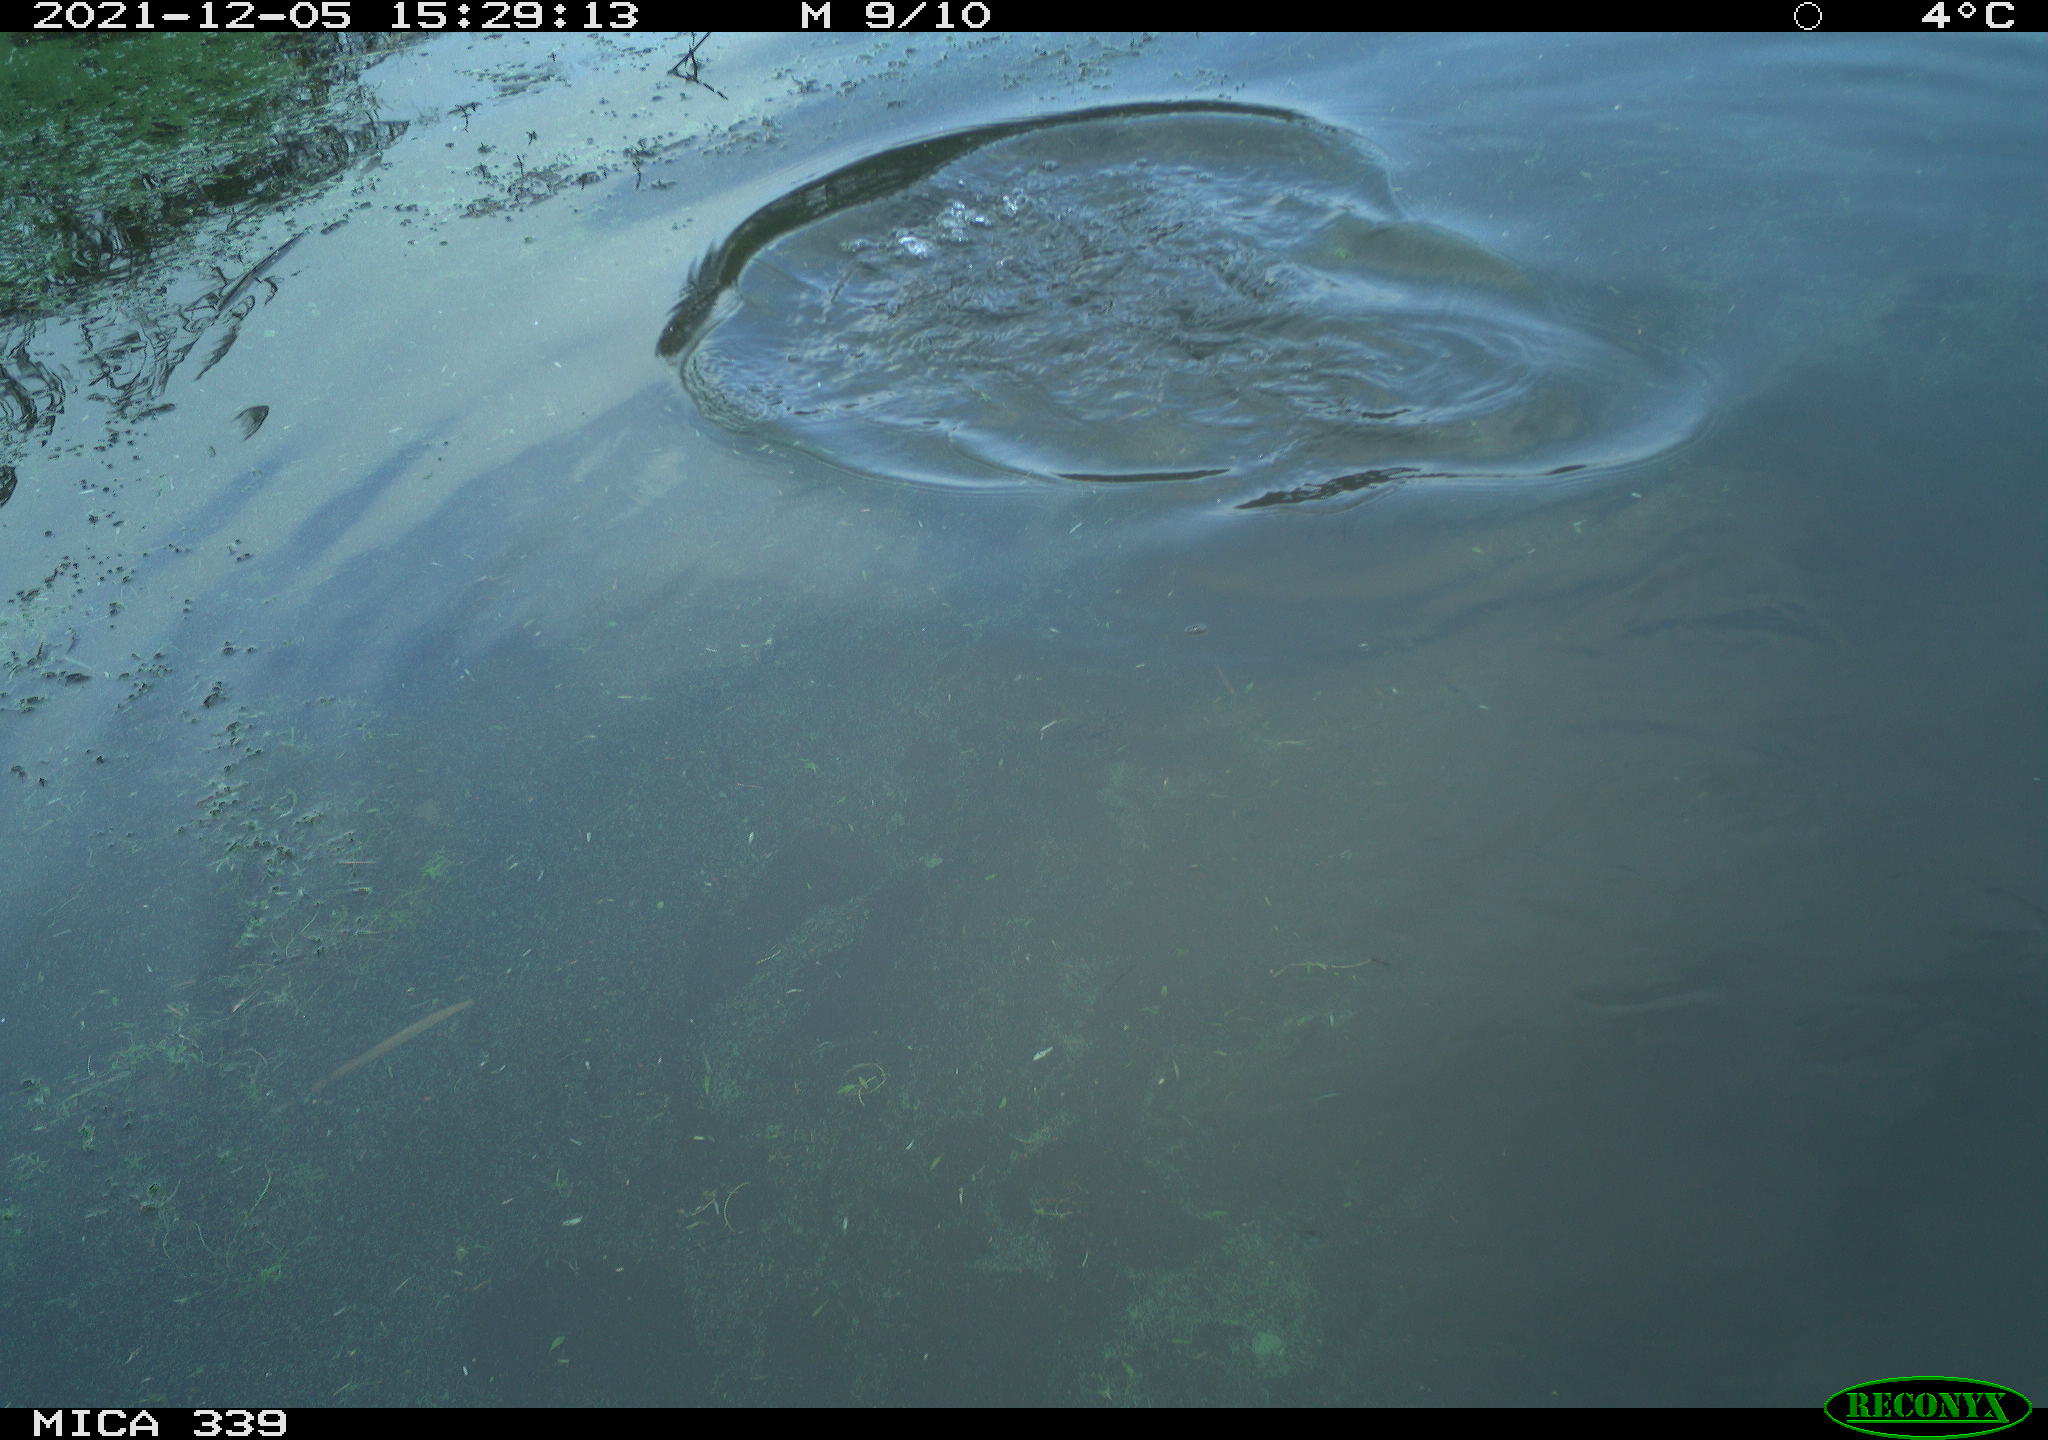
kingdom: Animalia
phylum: Chordata
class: Aves
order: Suliformes
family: Phalacrocoracidae
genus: Phalacrocorax
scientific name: Phalacrocorax carbo
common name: Great cormorant
